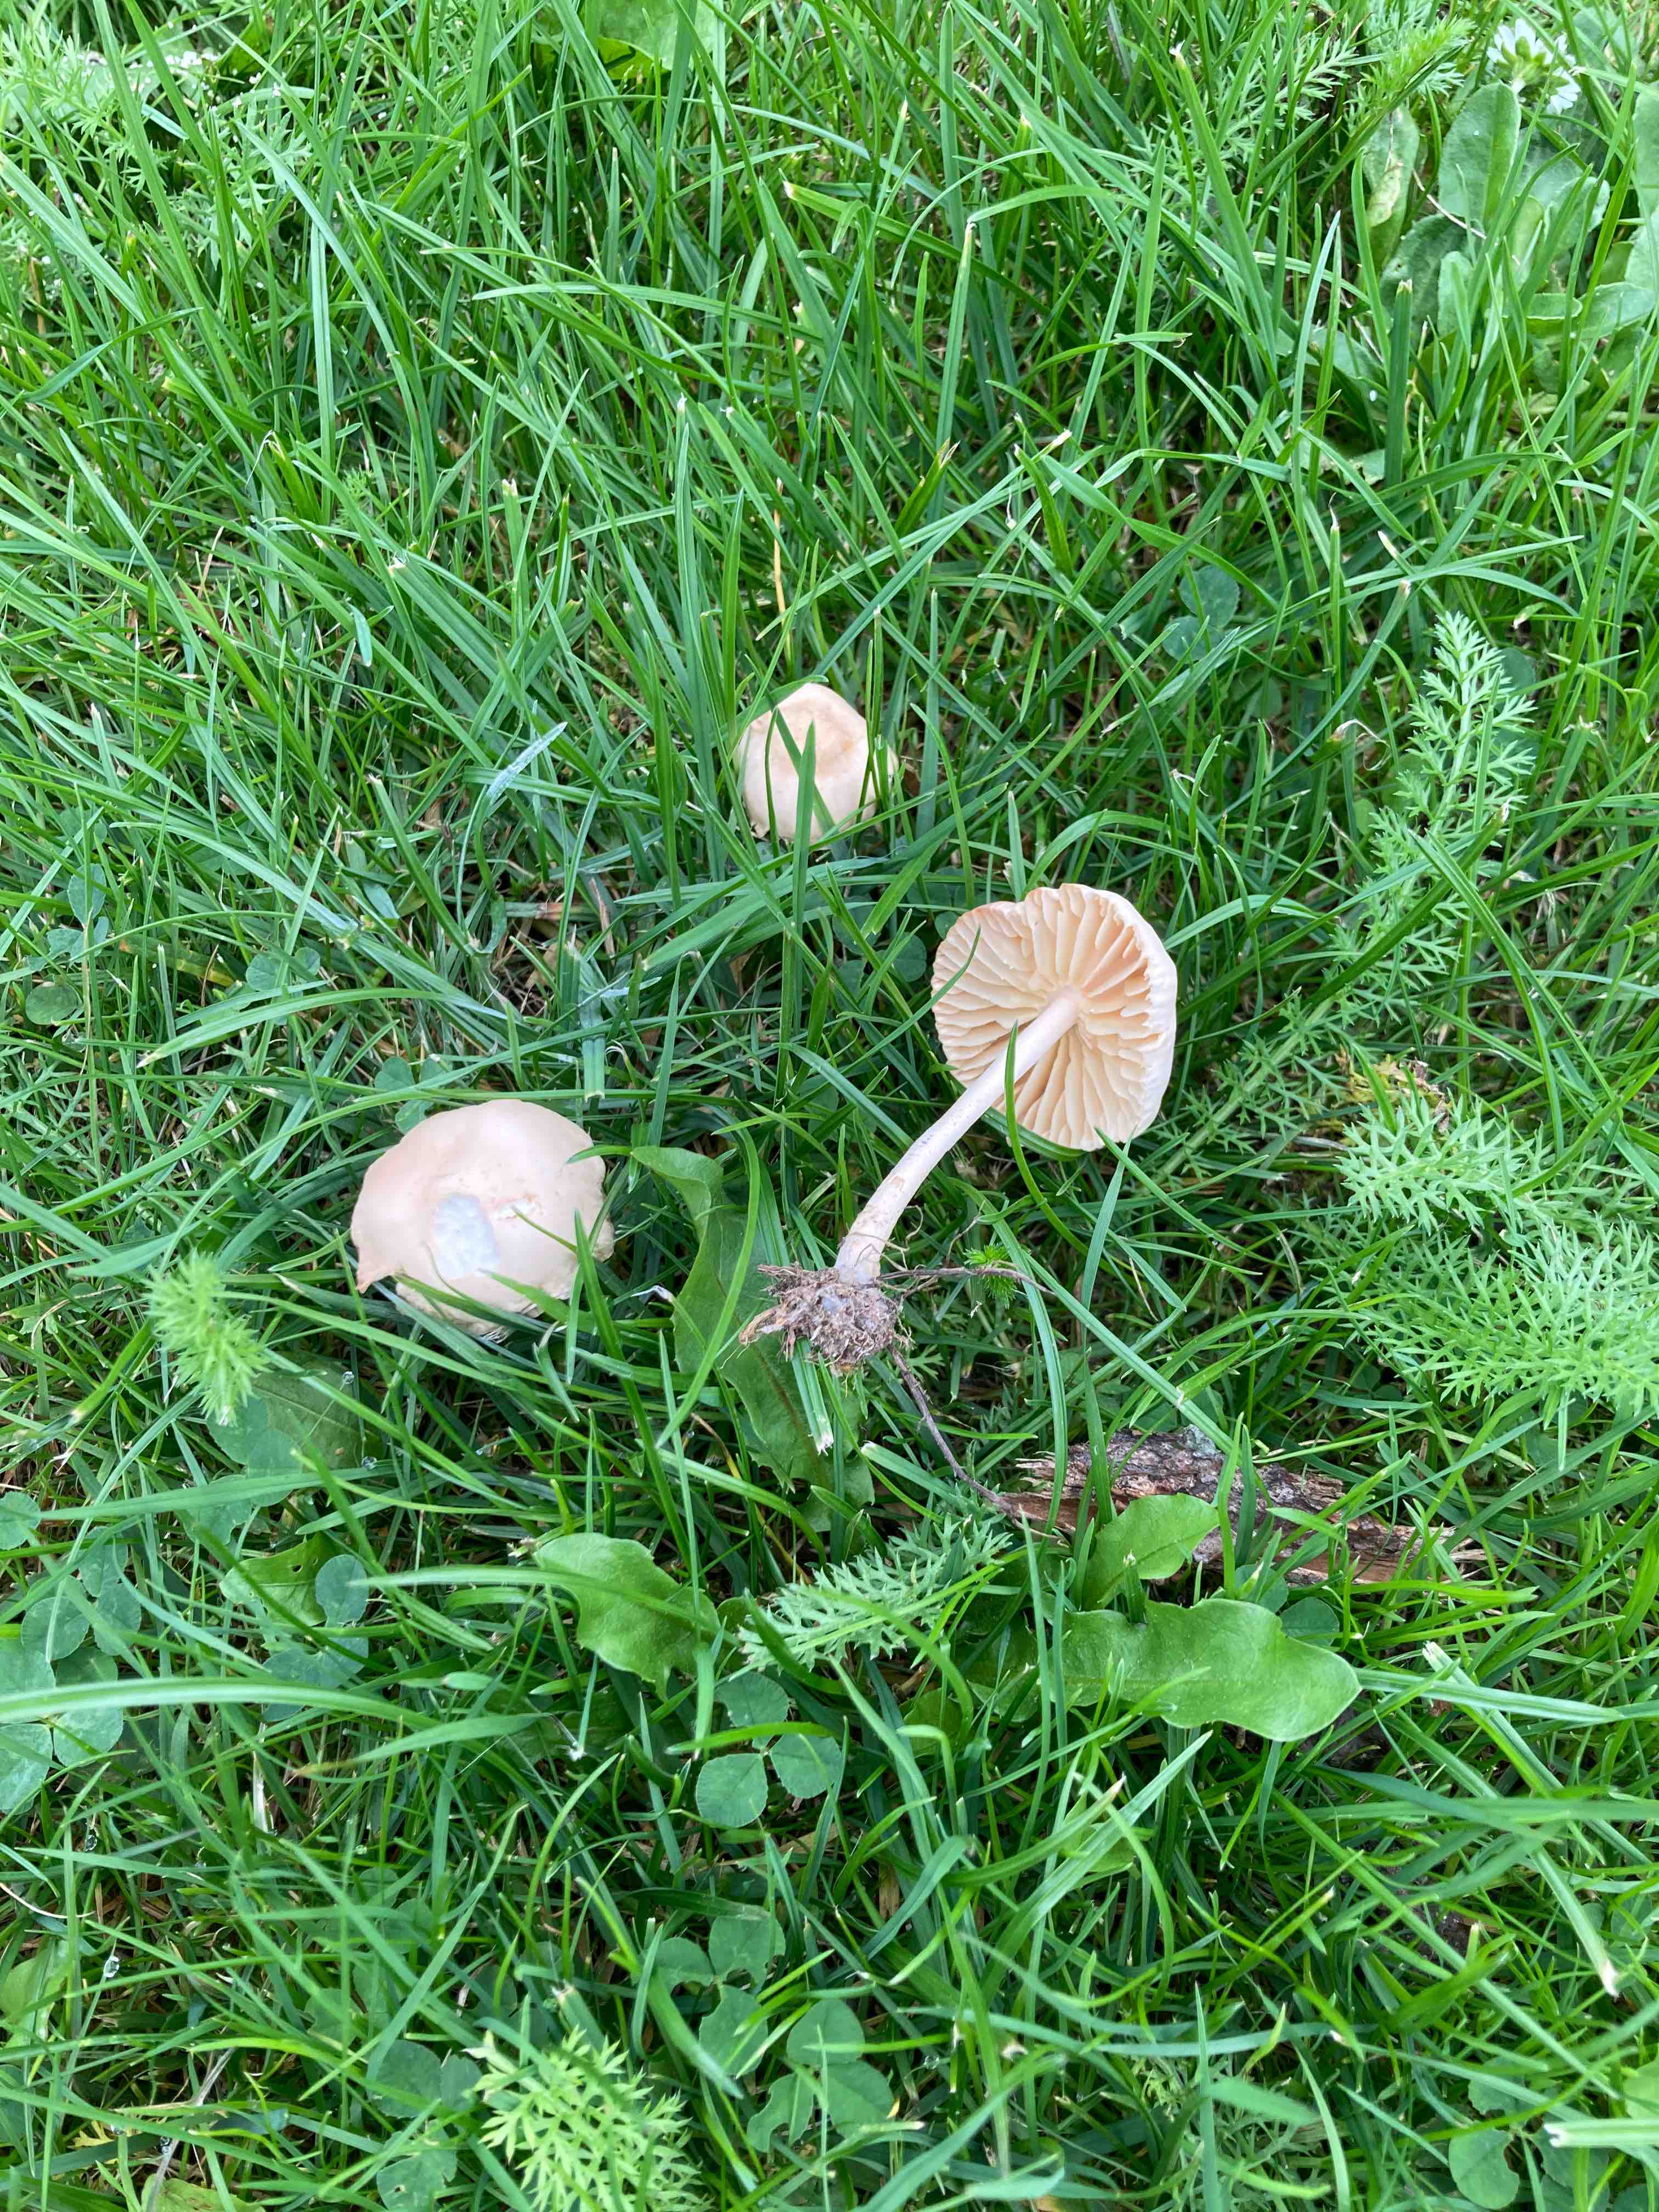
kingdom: Fungi
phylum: Basidiomycota
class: Agaricomycetes
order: Agaricales
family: Marasmiaceae
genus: Marasmius
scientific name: Marasmius oreades
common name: elledans-bruskhat
